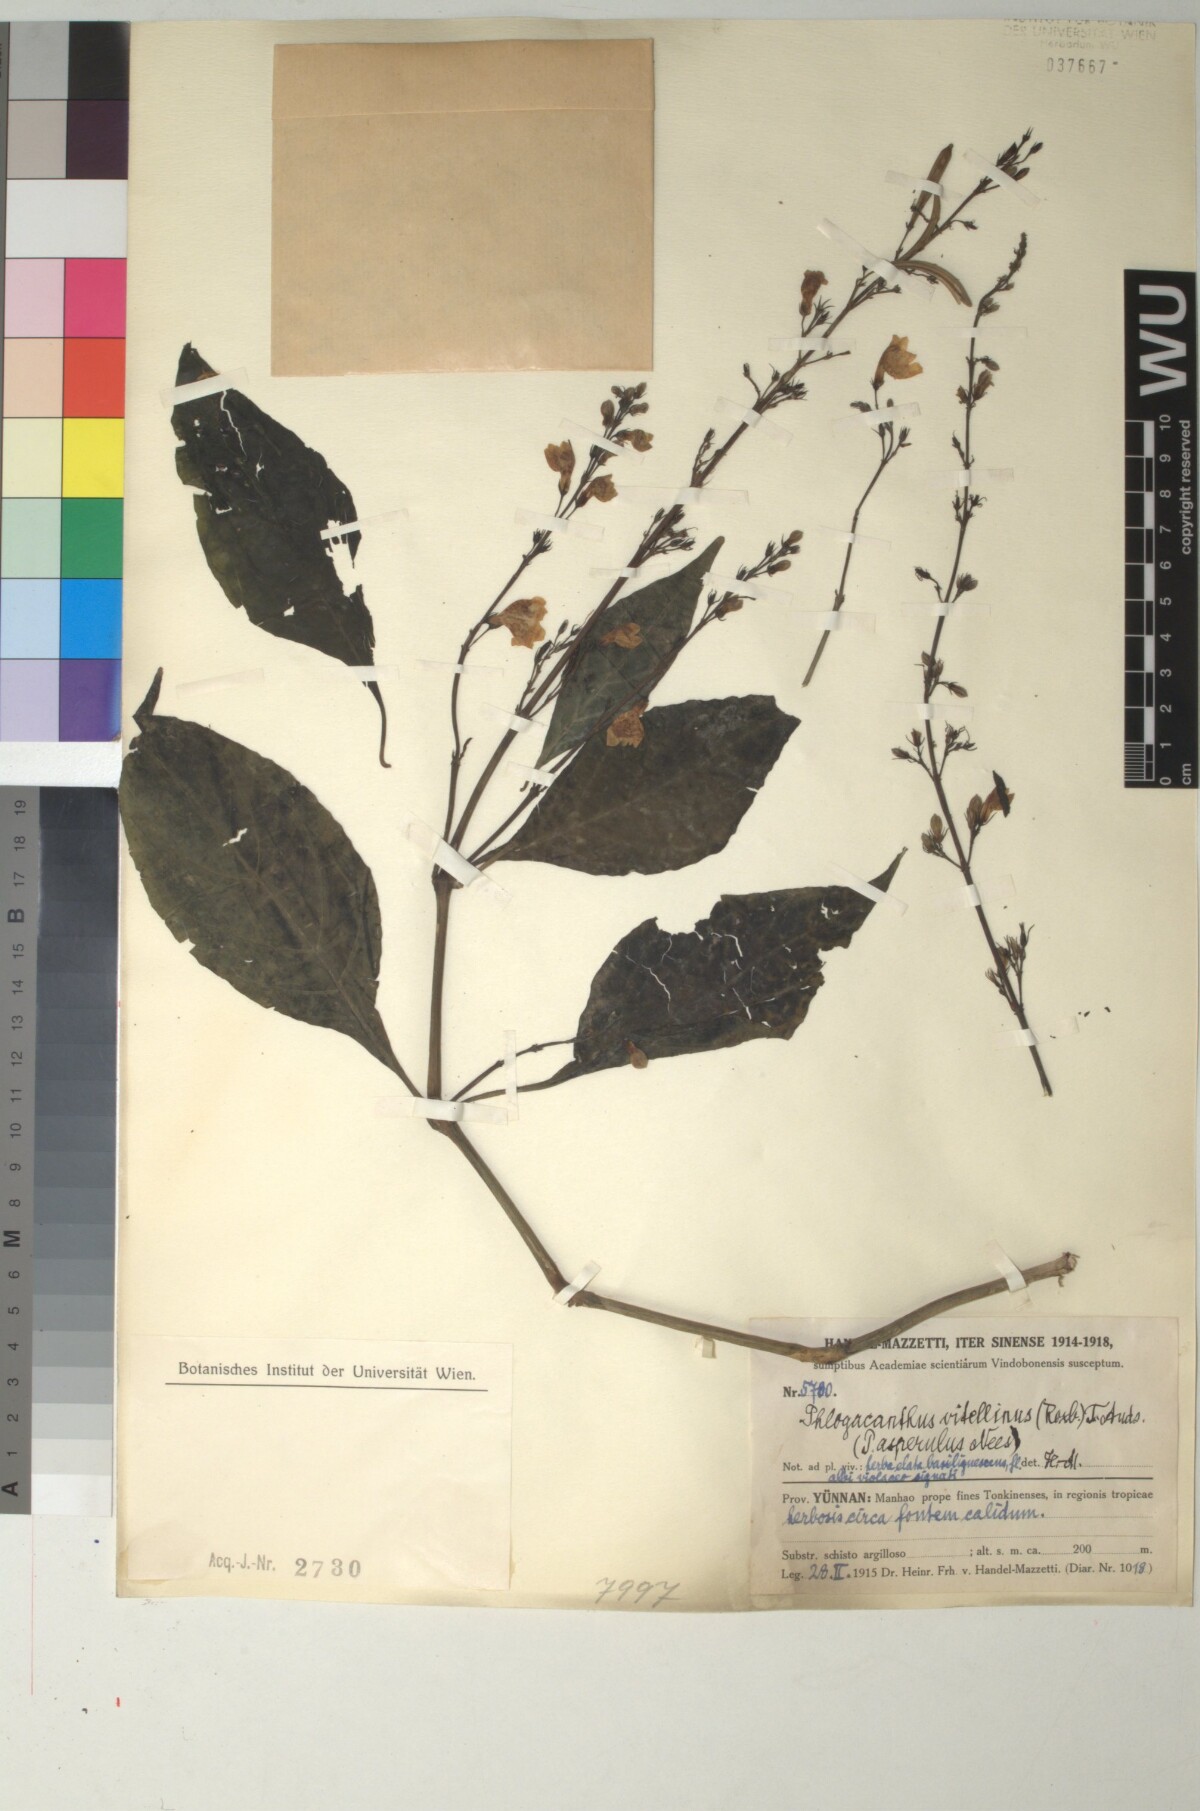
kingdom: Plantae
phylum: Tracheophyta
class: Magnoliopsida
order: Lamiales
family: Acanthaceae
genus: Phlogacanthus
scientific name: Phlogacanthus vitellinus
